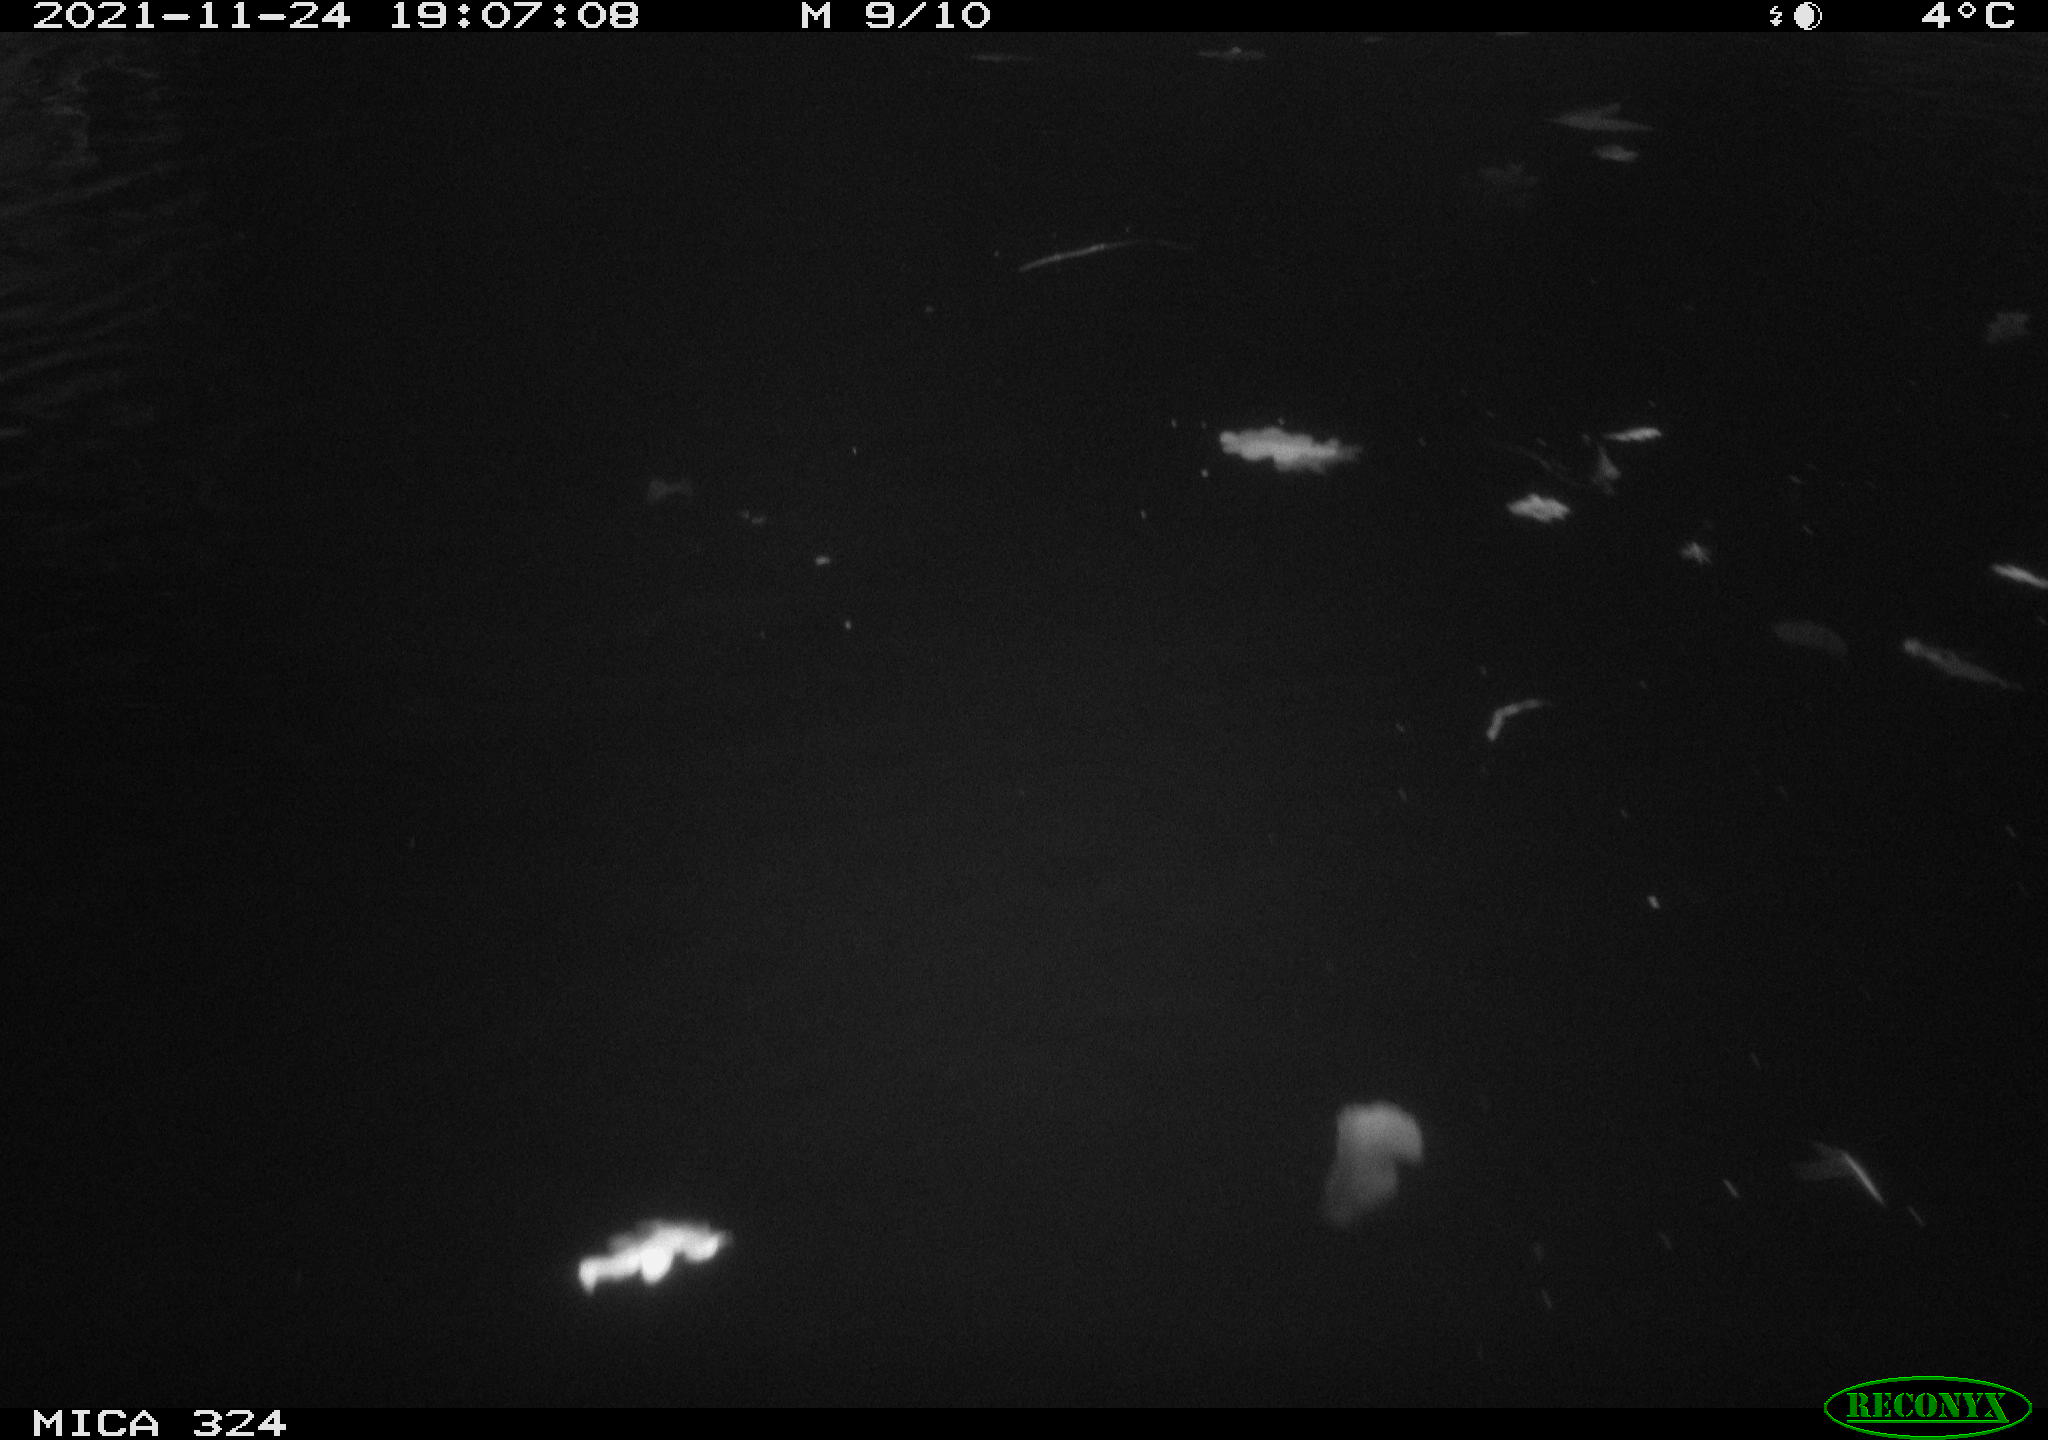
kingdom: Animalia
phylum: Chordata
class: Mammalia
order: Rodentia
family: Cricetidae
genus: Ondatra
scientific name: Ondatra zibethicus
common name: Muskrat
